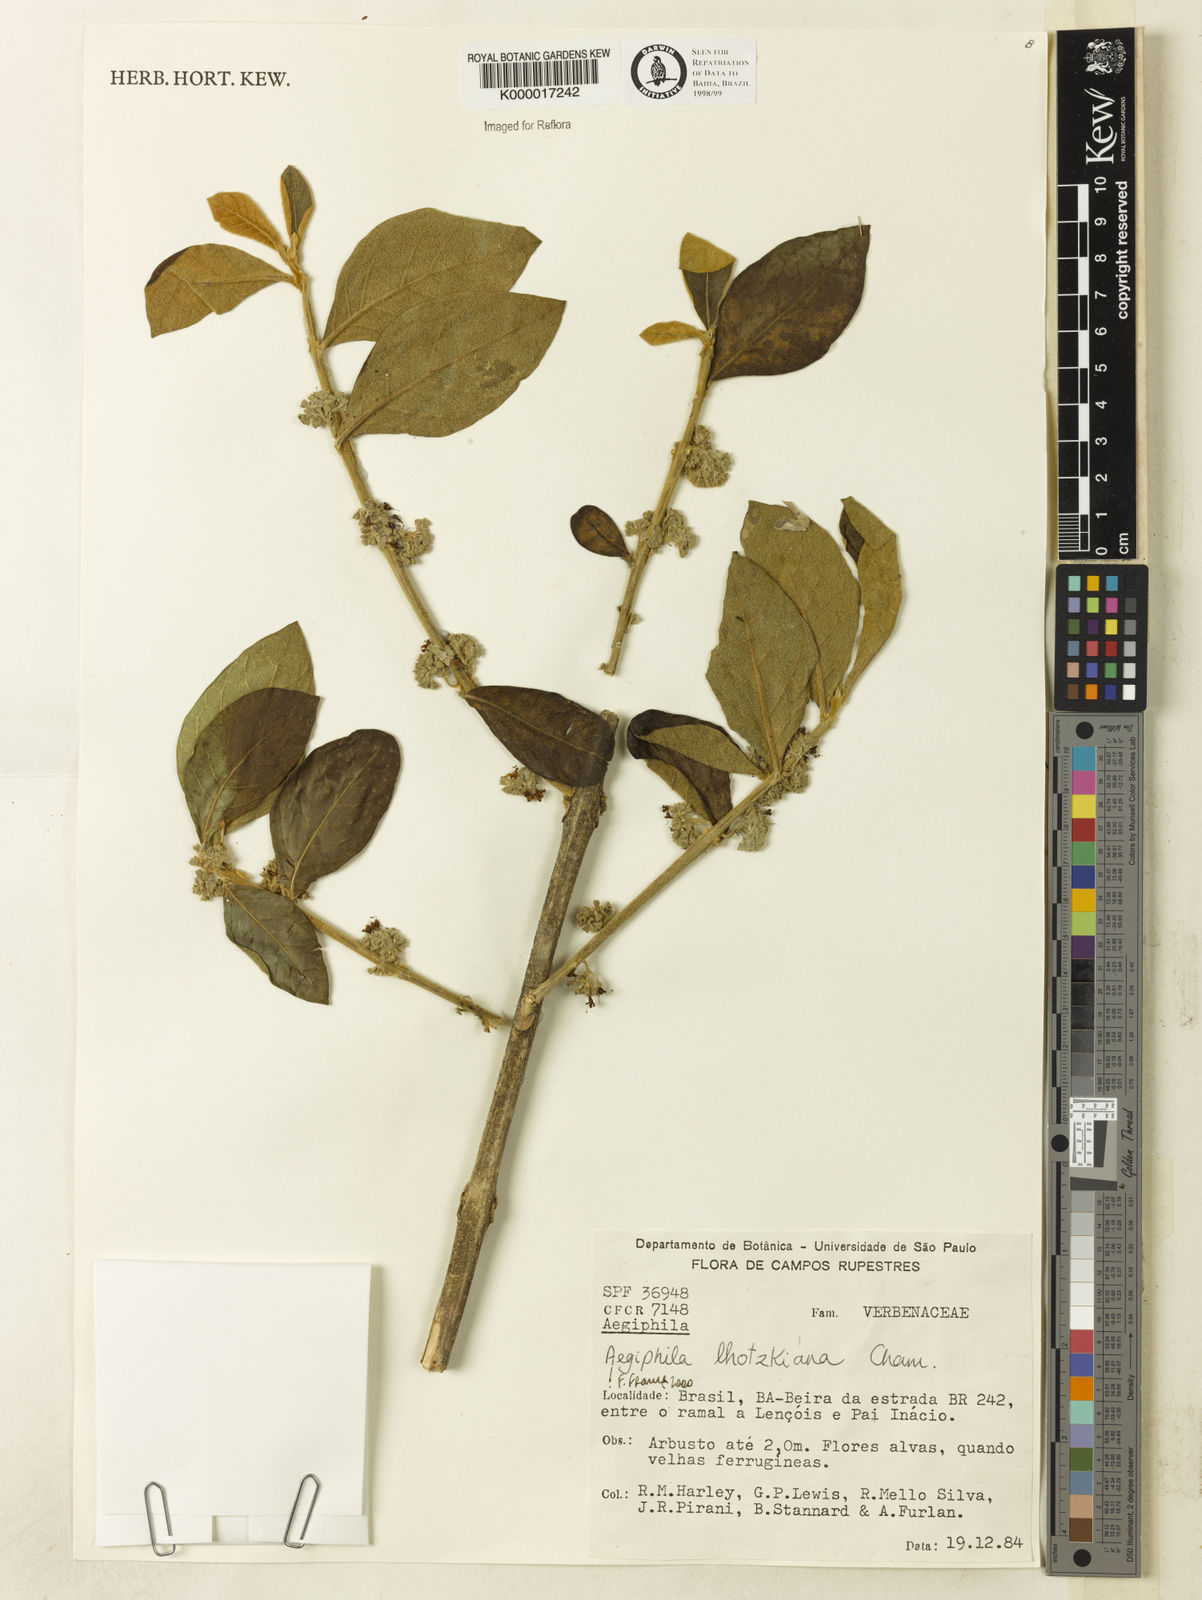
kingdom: Plantae
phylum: Tracheophyta
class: Magnoliopsida
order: Lamiales
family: Lamiaceae
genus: Aegiphila
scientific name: Aegiphila verticillata
